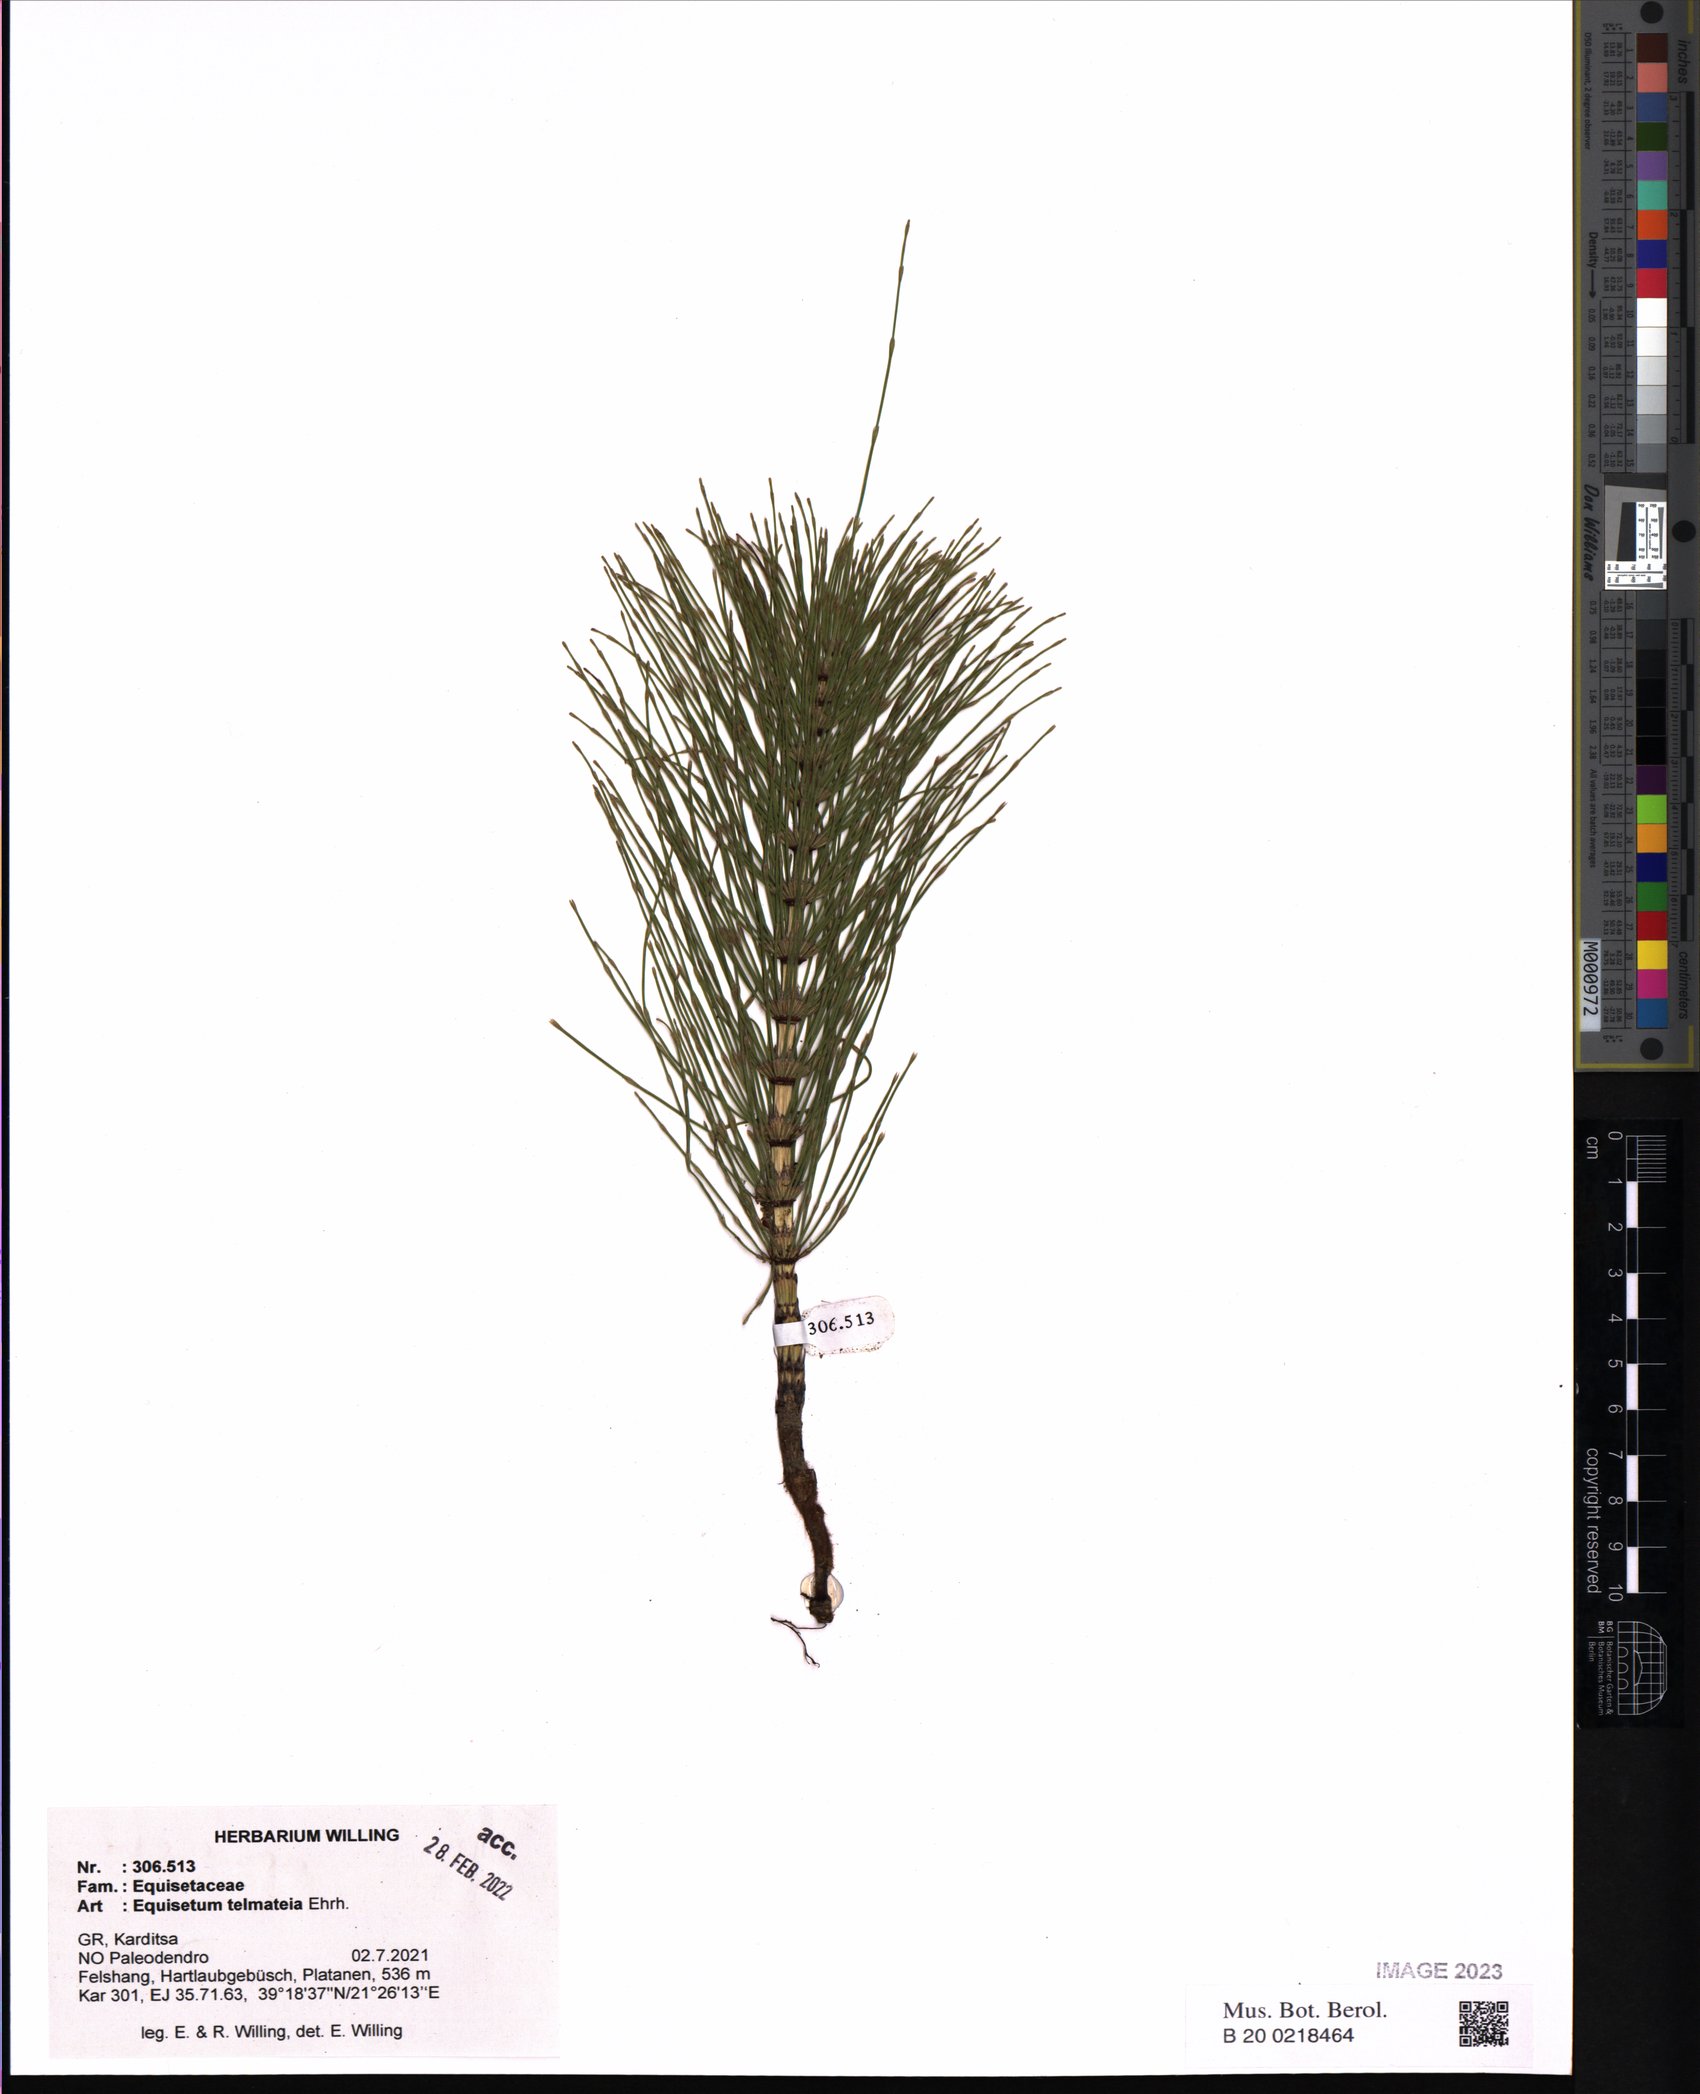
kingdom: Plantae
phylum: Tracheophyta
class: Polypodiopsida
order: Equisetales
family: Equisetaceae
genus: Equisetum
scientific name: Equisetum telmateia
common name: Great horsetail
